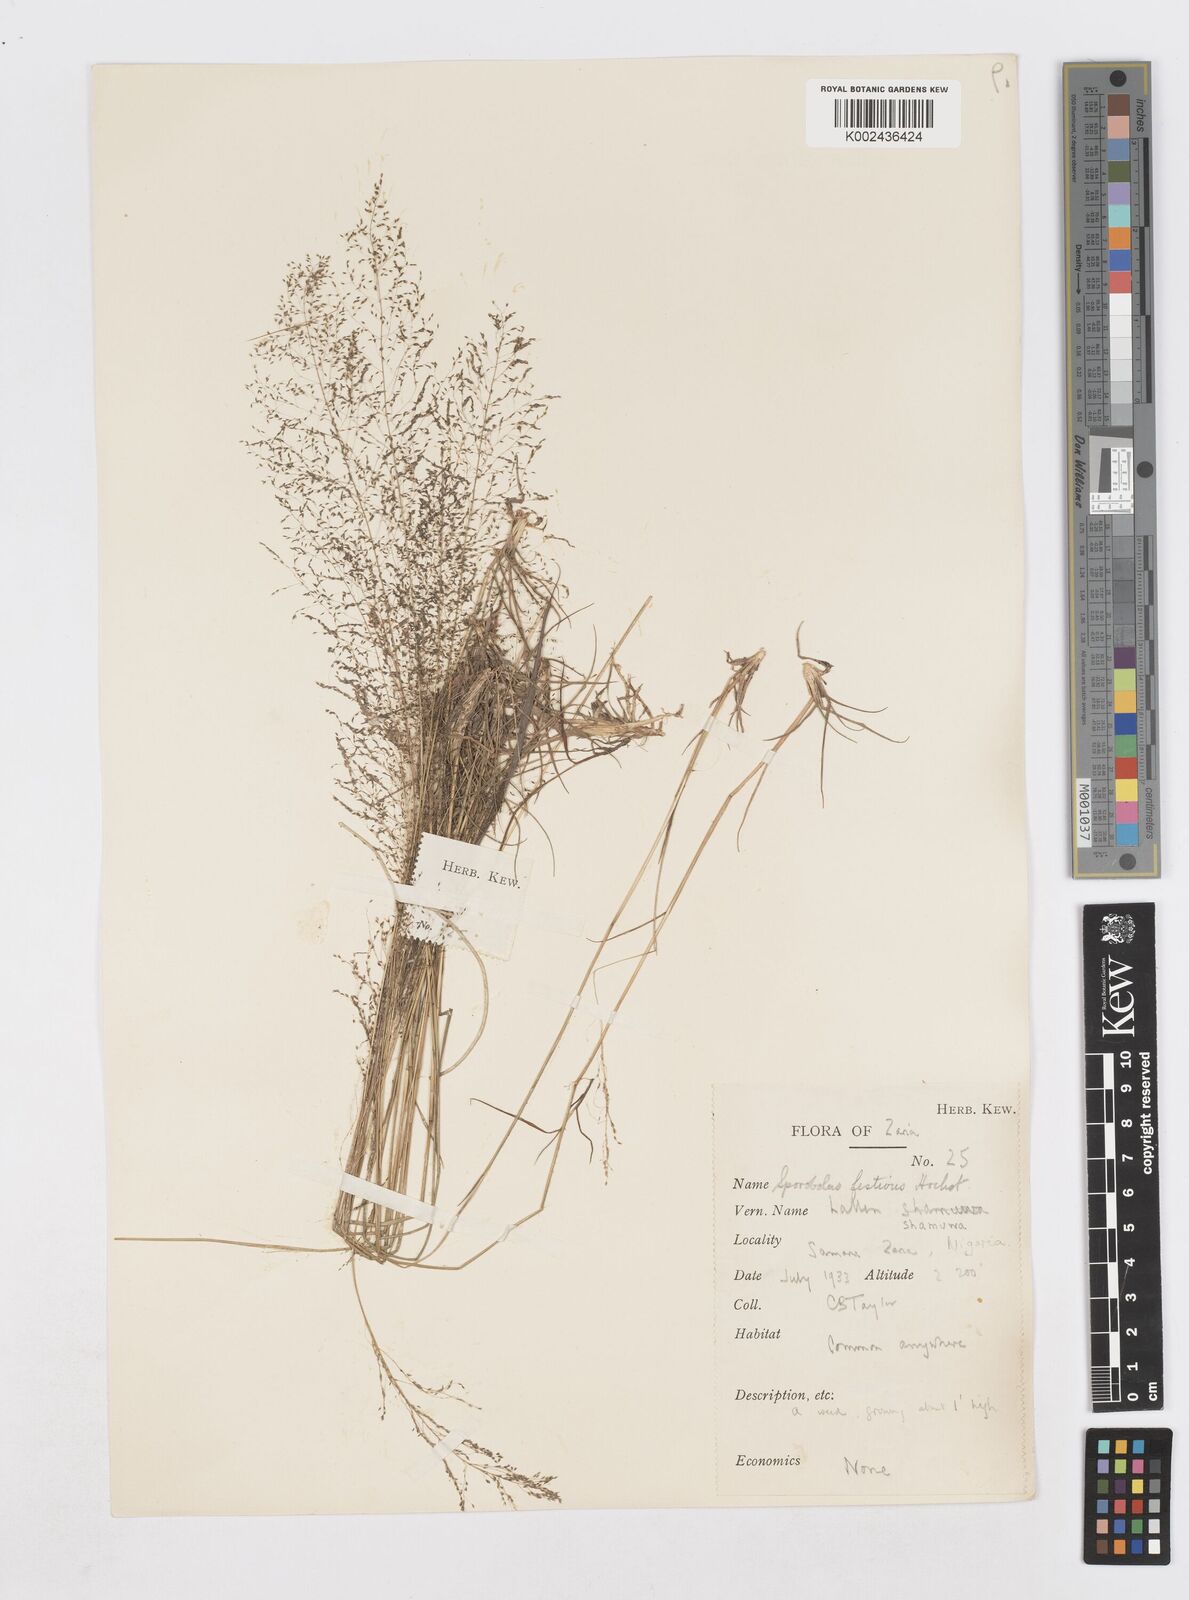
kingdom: Plantae
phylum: Tracheophyta
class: Liliopsida
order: Poales
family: Poaceae
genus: Sporobolus
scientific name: Sporobolus festivus
